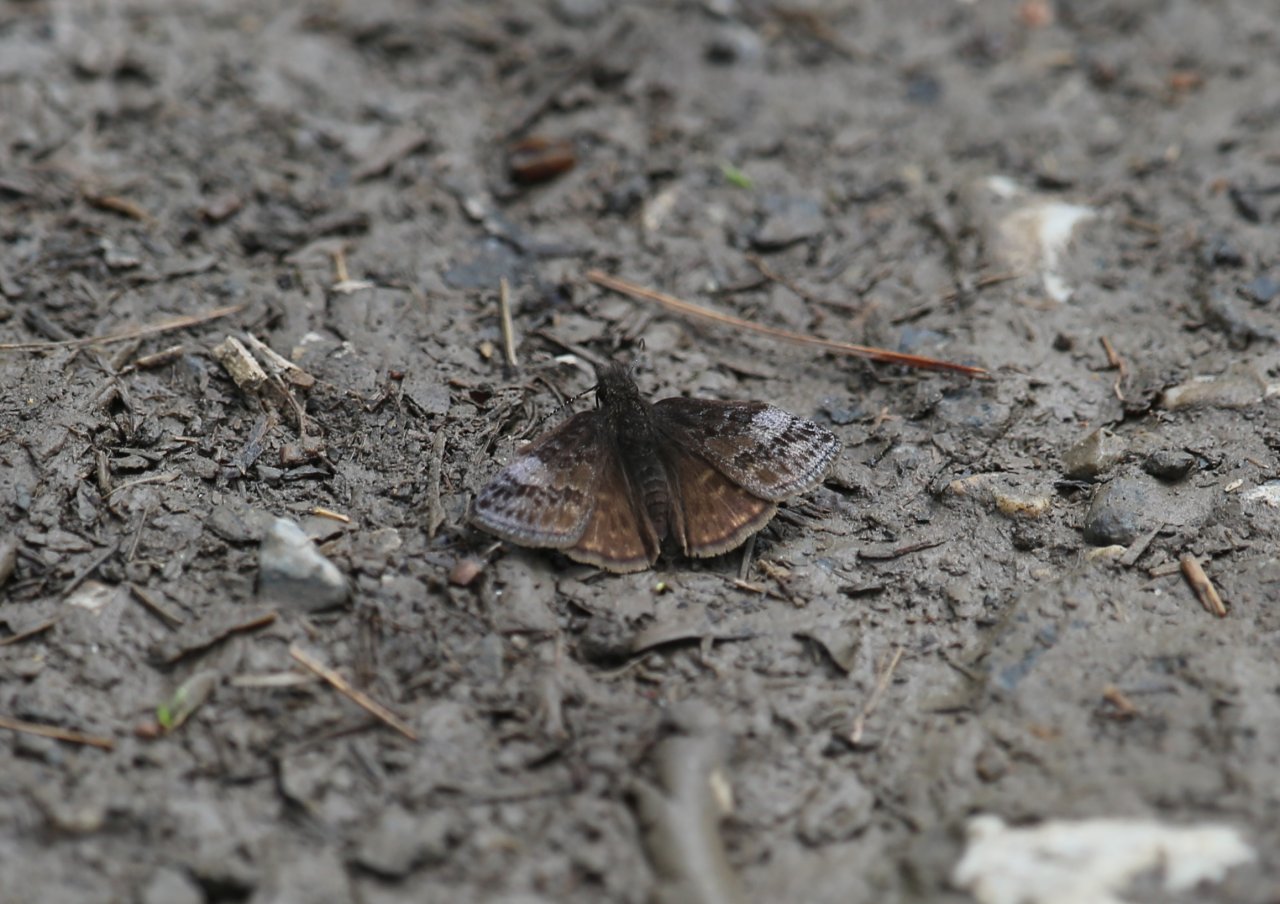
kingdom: Animalia
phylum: Arthropoda
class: Insecta
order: Lepidoptera
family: Hesperiidae
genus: Erynnis
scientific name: Erynnis icelus
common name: Dreamy Duskywing
